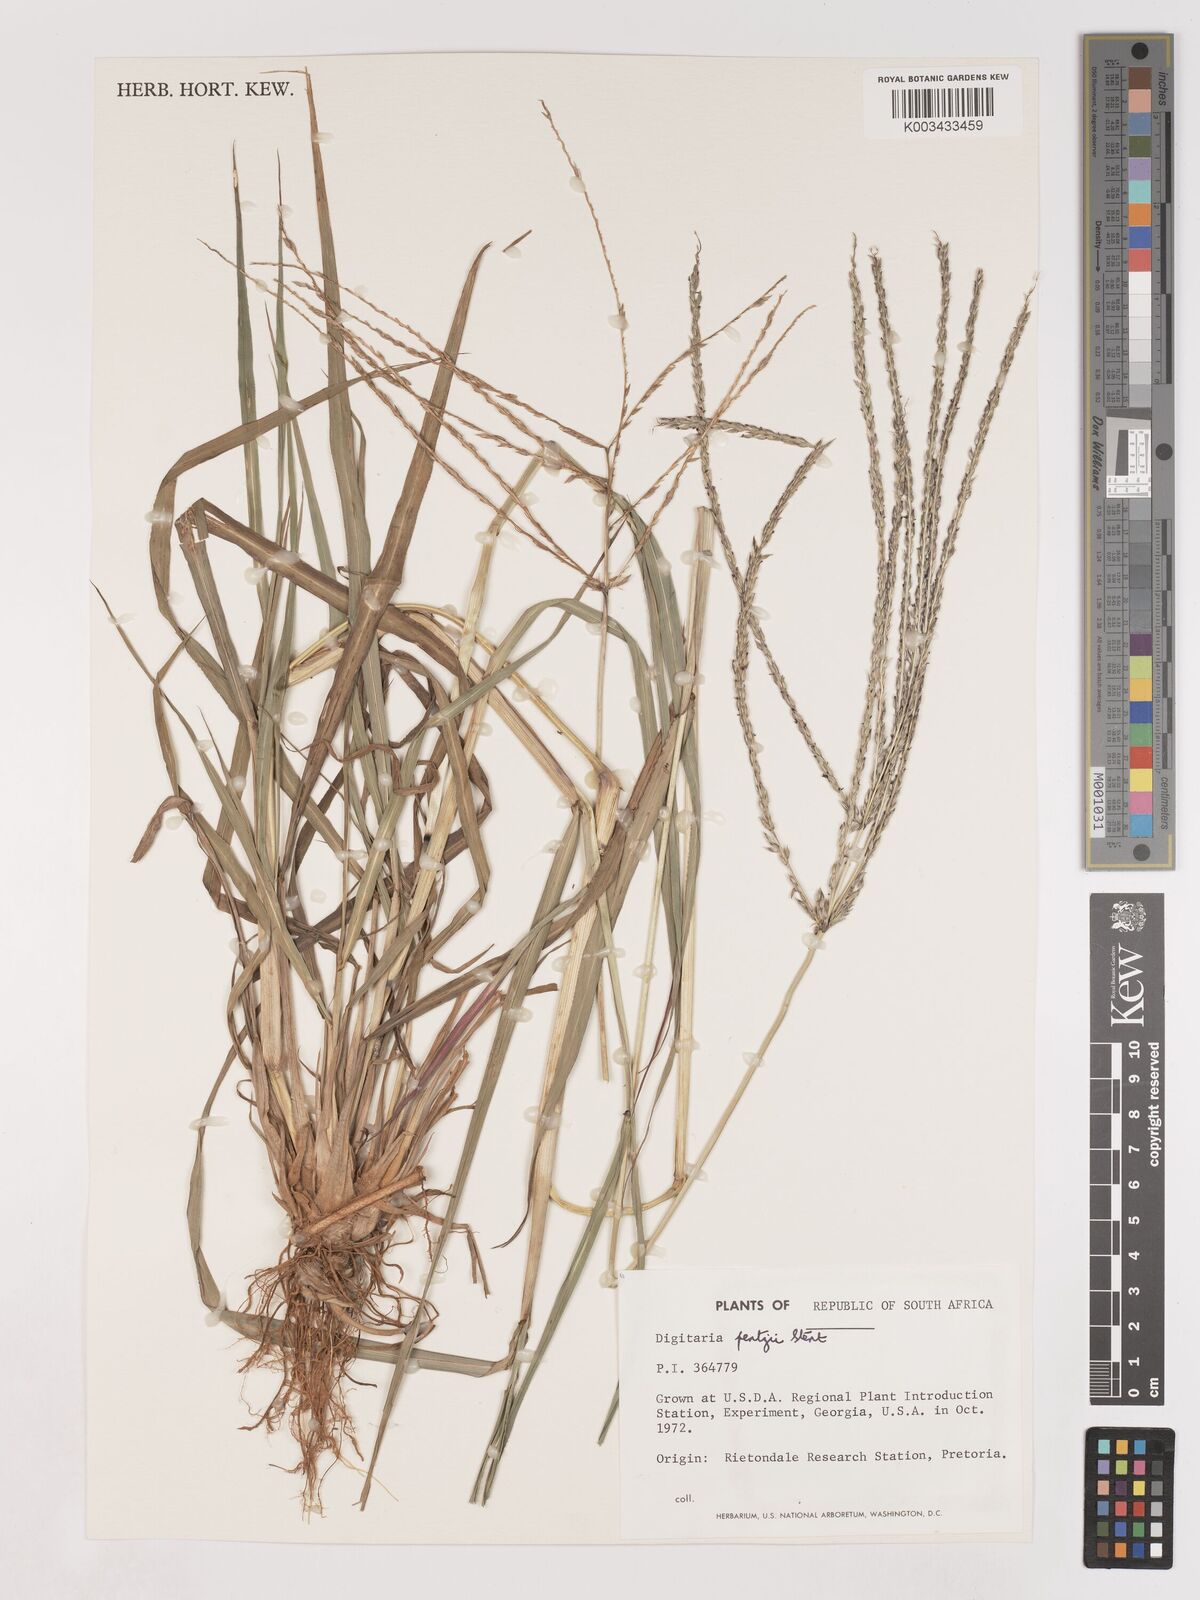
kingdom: Plantae
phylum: Tracheophyta
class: Liliopsida
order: Poales
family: Poaceae
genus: Digitaria
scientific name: Digitaria eriantha
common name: Digitgrass
